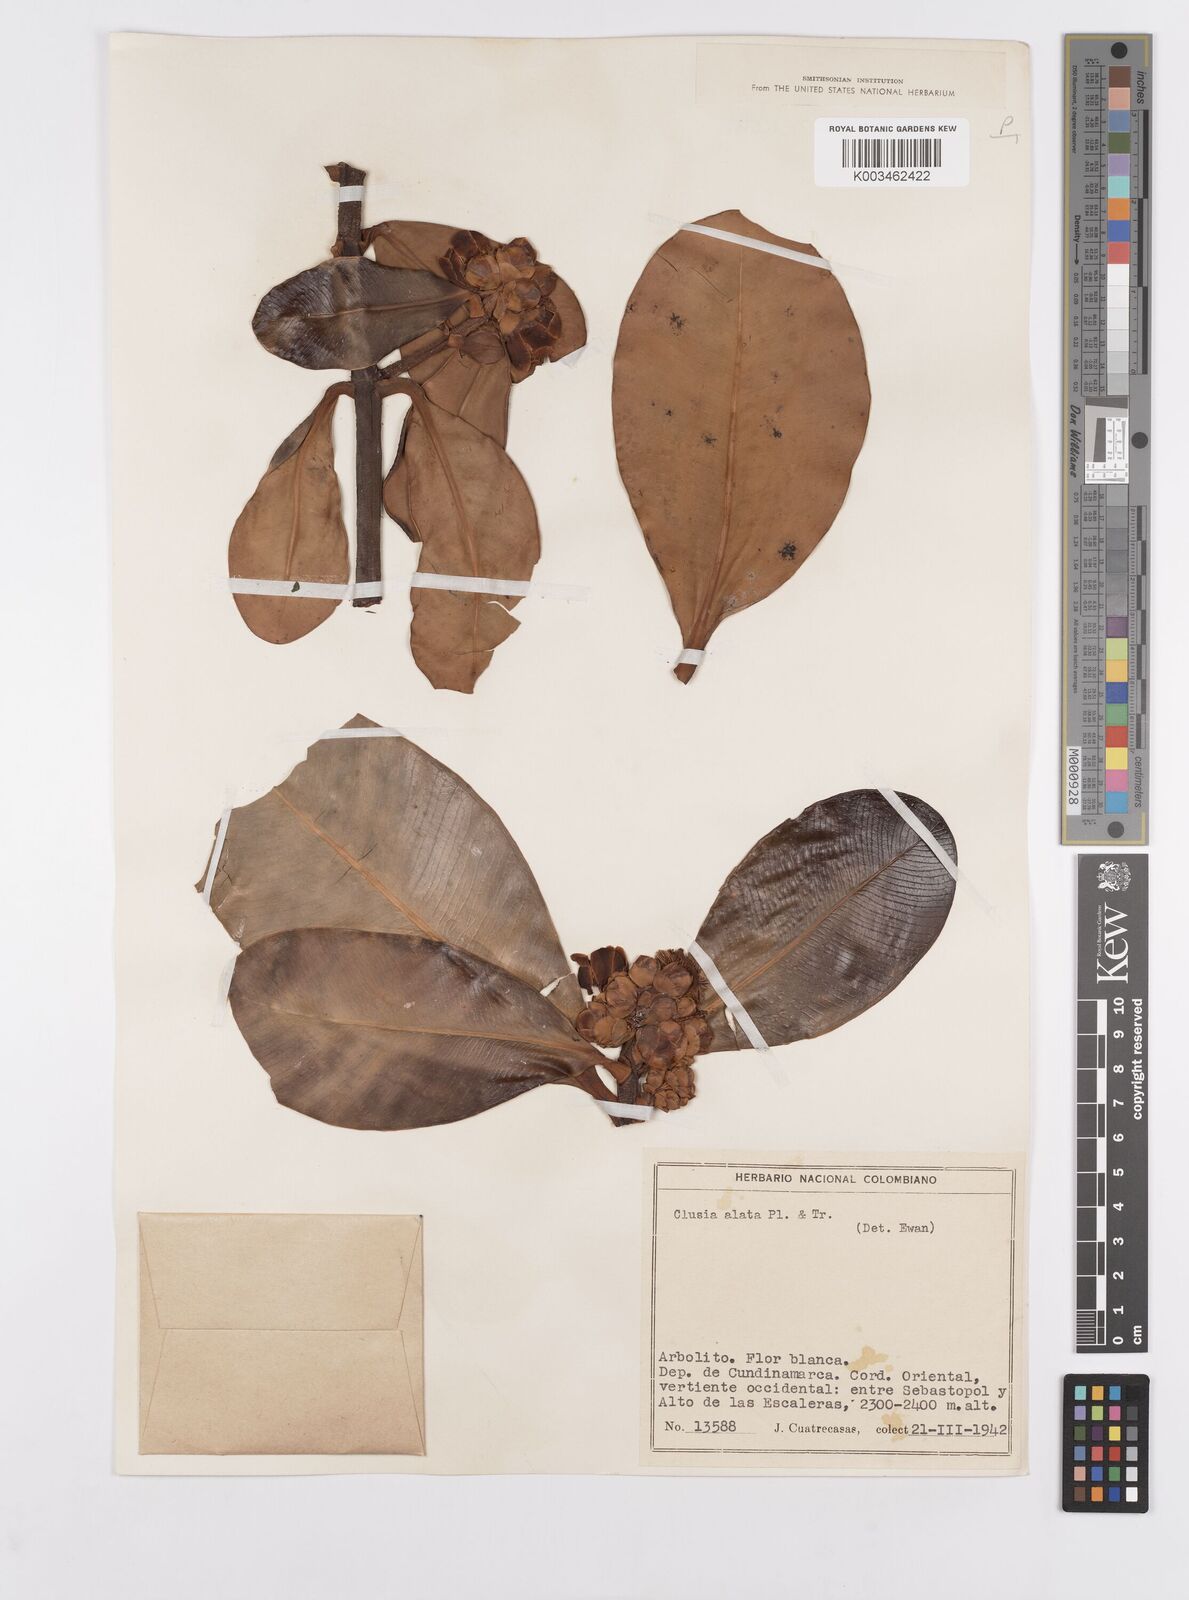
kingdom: Plantae
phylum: Tracheophyta
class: Magnoliopsida
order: Malpighiales
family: Clusiaceae
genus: Clusia
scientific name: Clusia alata
